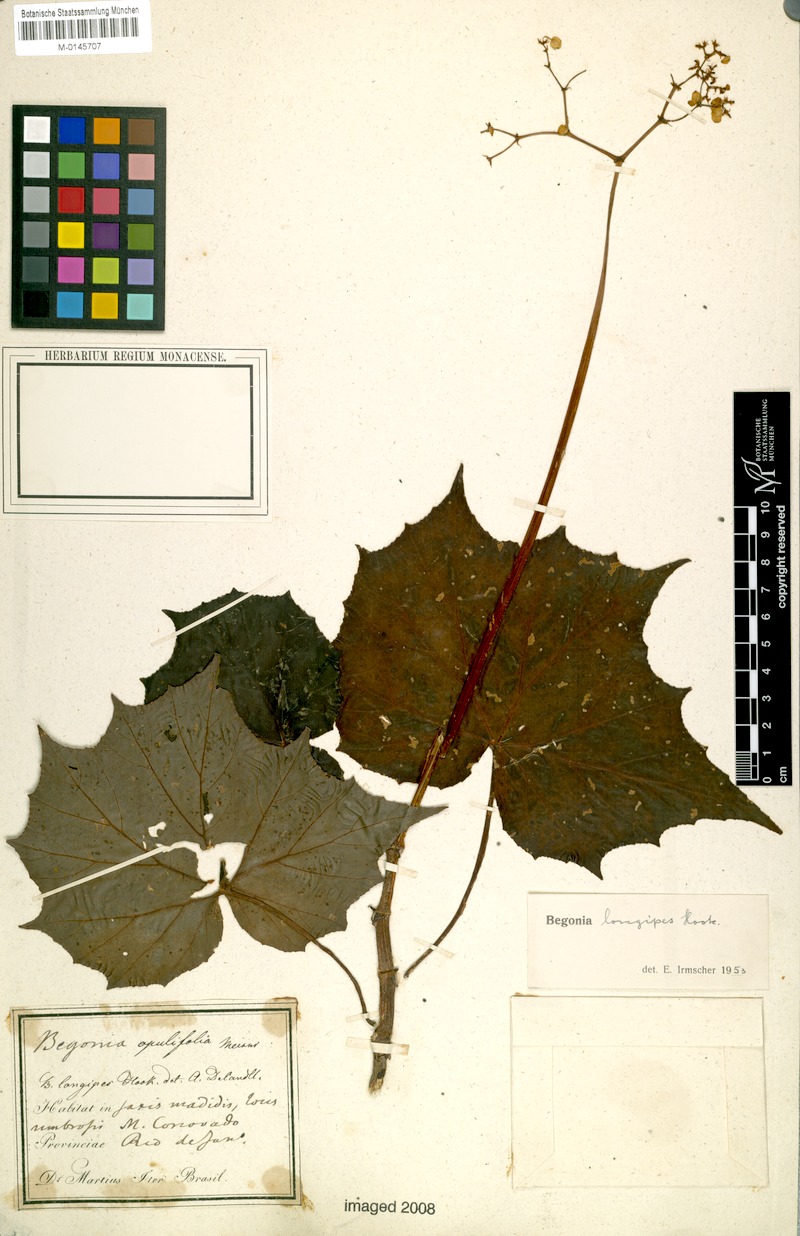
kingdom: Plantae
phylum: Tracheophyta
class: Magnoliopsida
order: Cucurbitales
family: Begoniaceae
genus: Begonia
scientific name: Begonia reniformis
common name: Grapeleaf begonia
